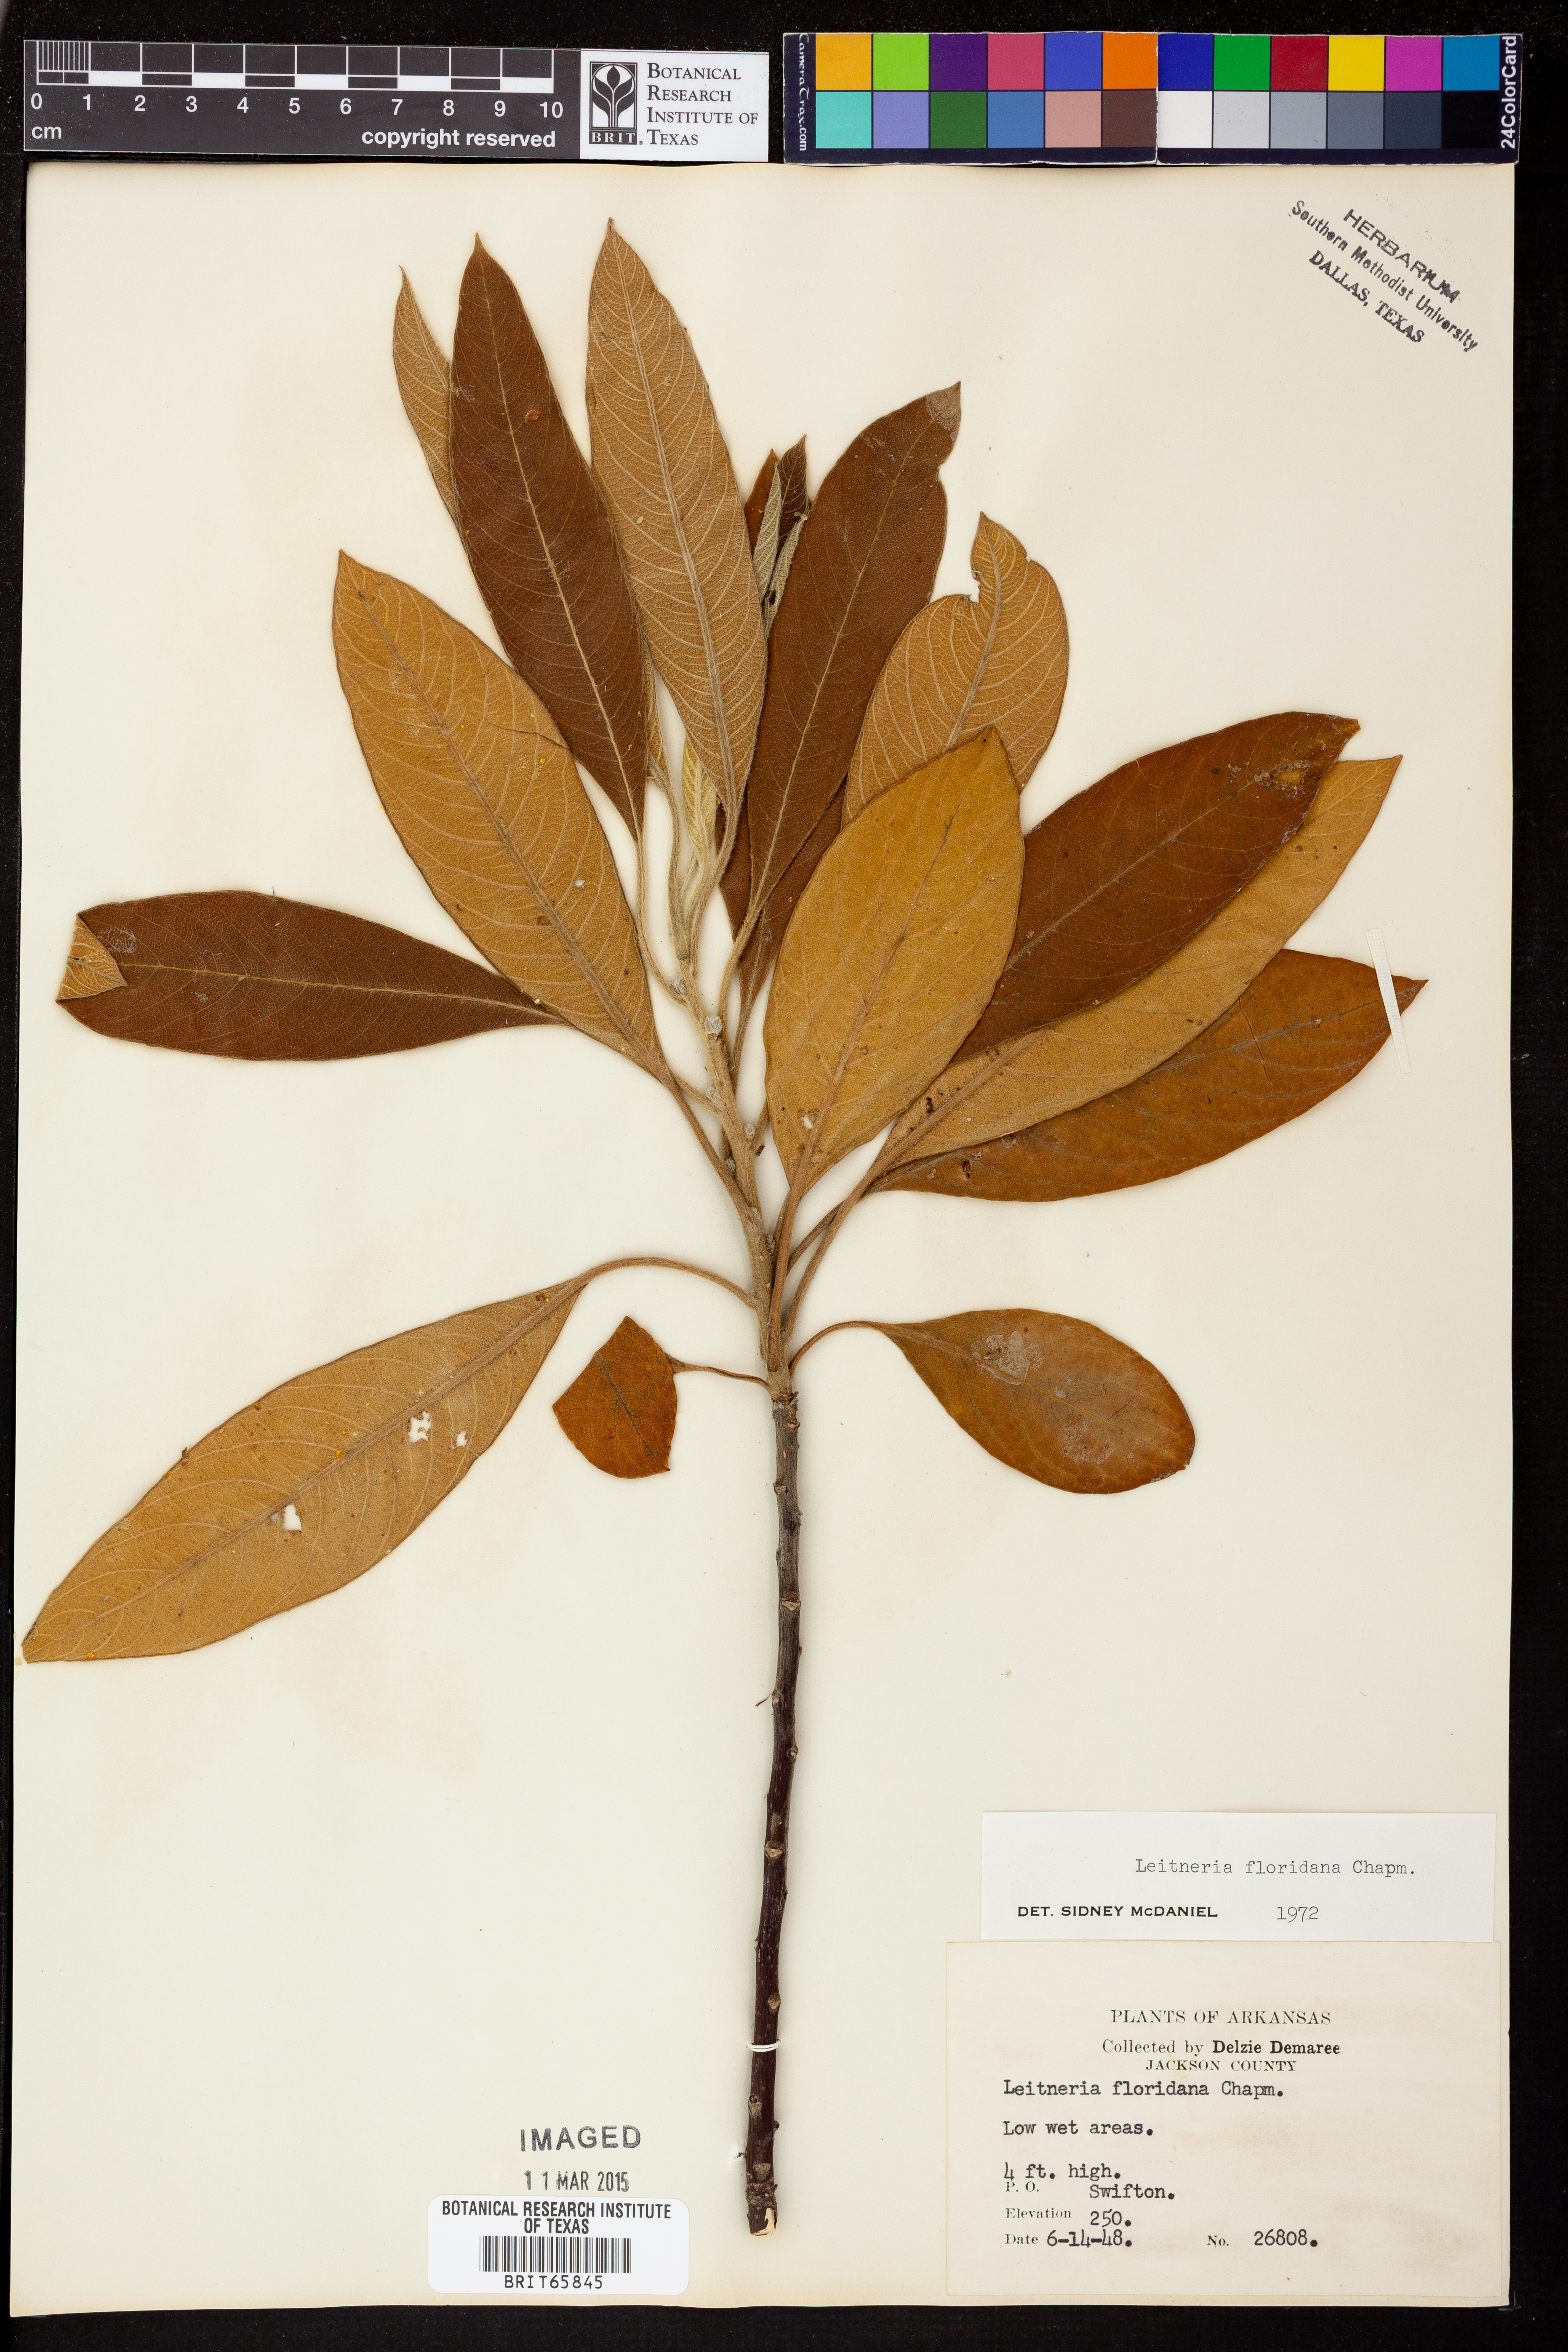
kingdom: Plantae
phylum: Tracheophyta
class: Magnoliopsida
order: Sapindales
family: Simaroubaceae
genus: Leitneria
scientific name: Leitneria floridana
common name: Corkwood
